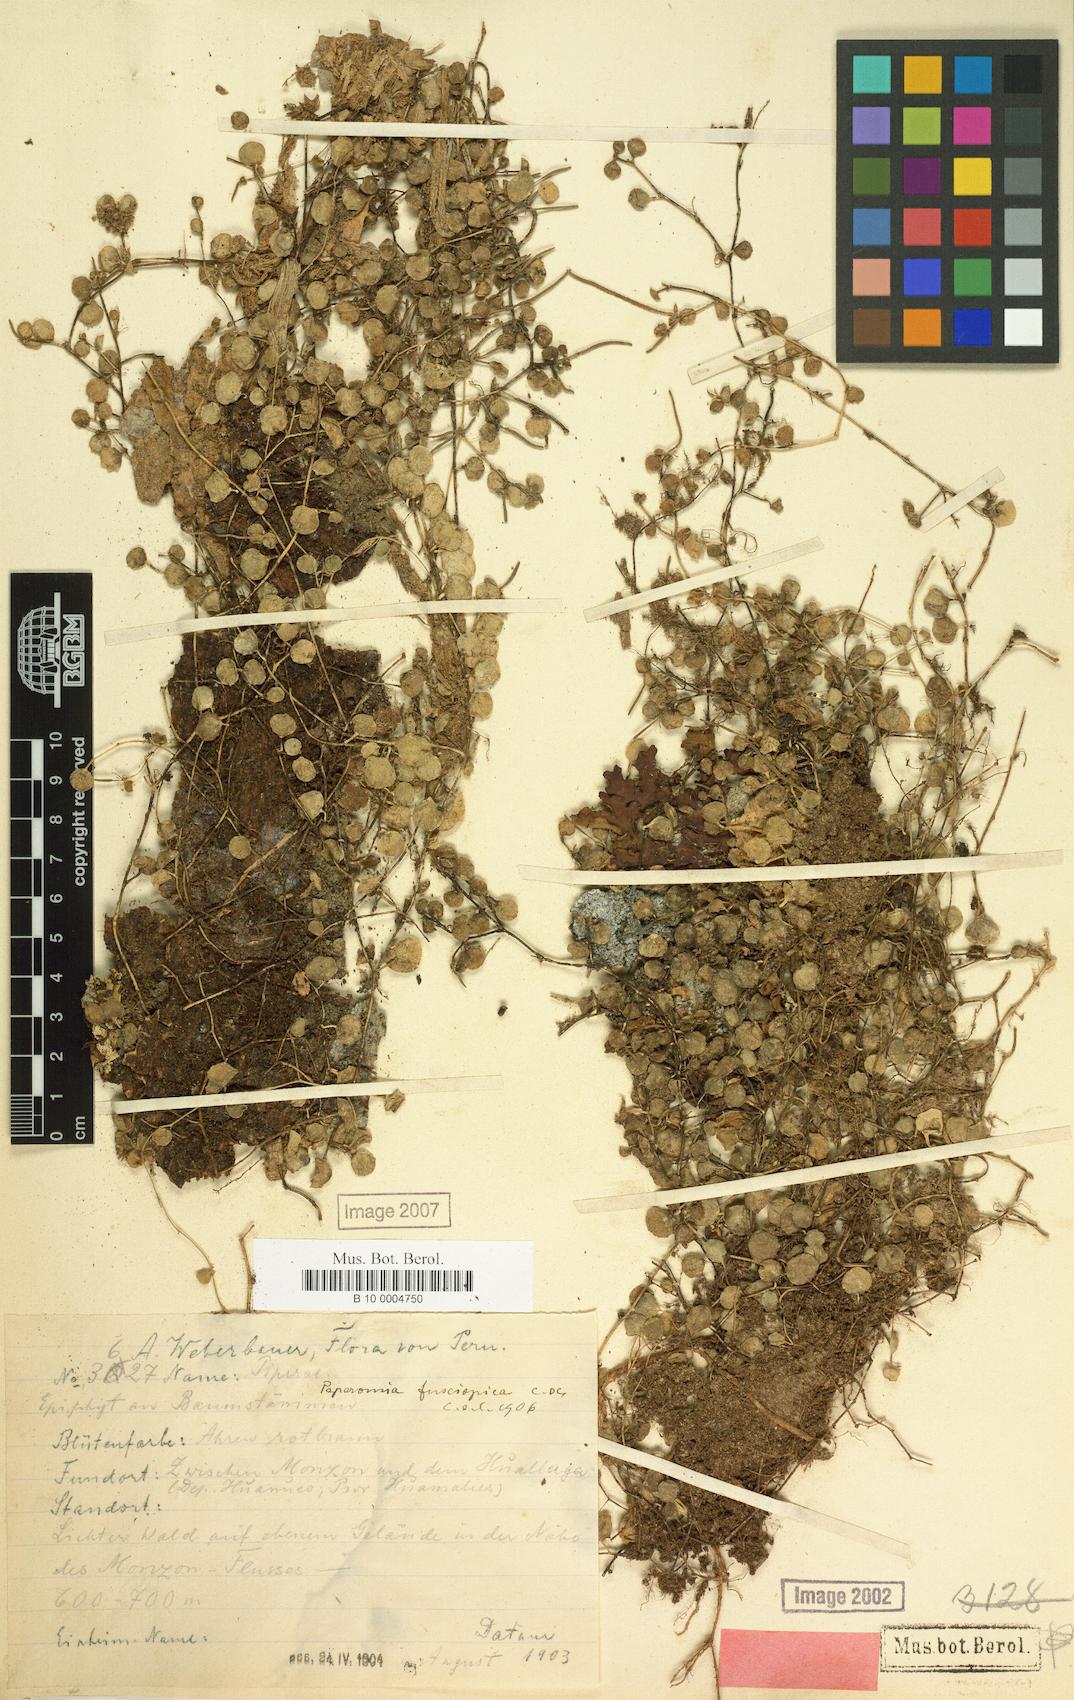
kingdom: Plantae
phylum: Tracheophyta
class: Magnoliopsida
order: Piperales
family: Piperaceae
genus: Peperomia
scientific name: Peperomia fuscispica
